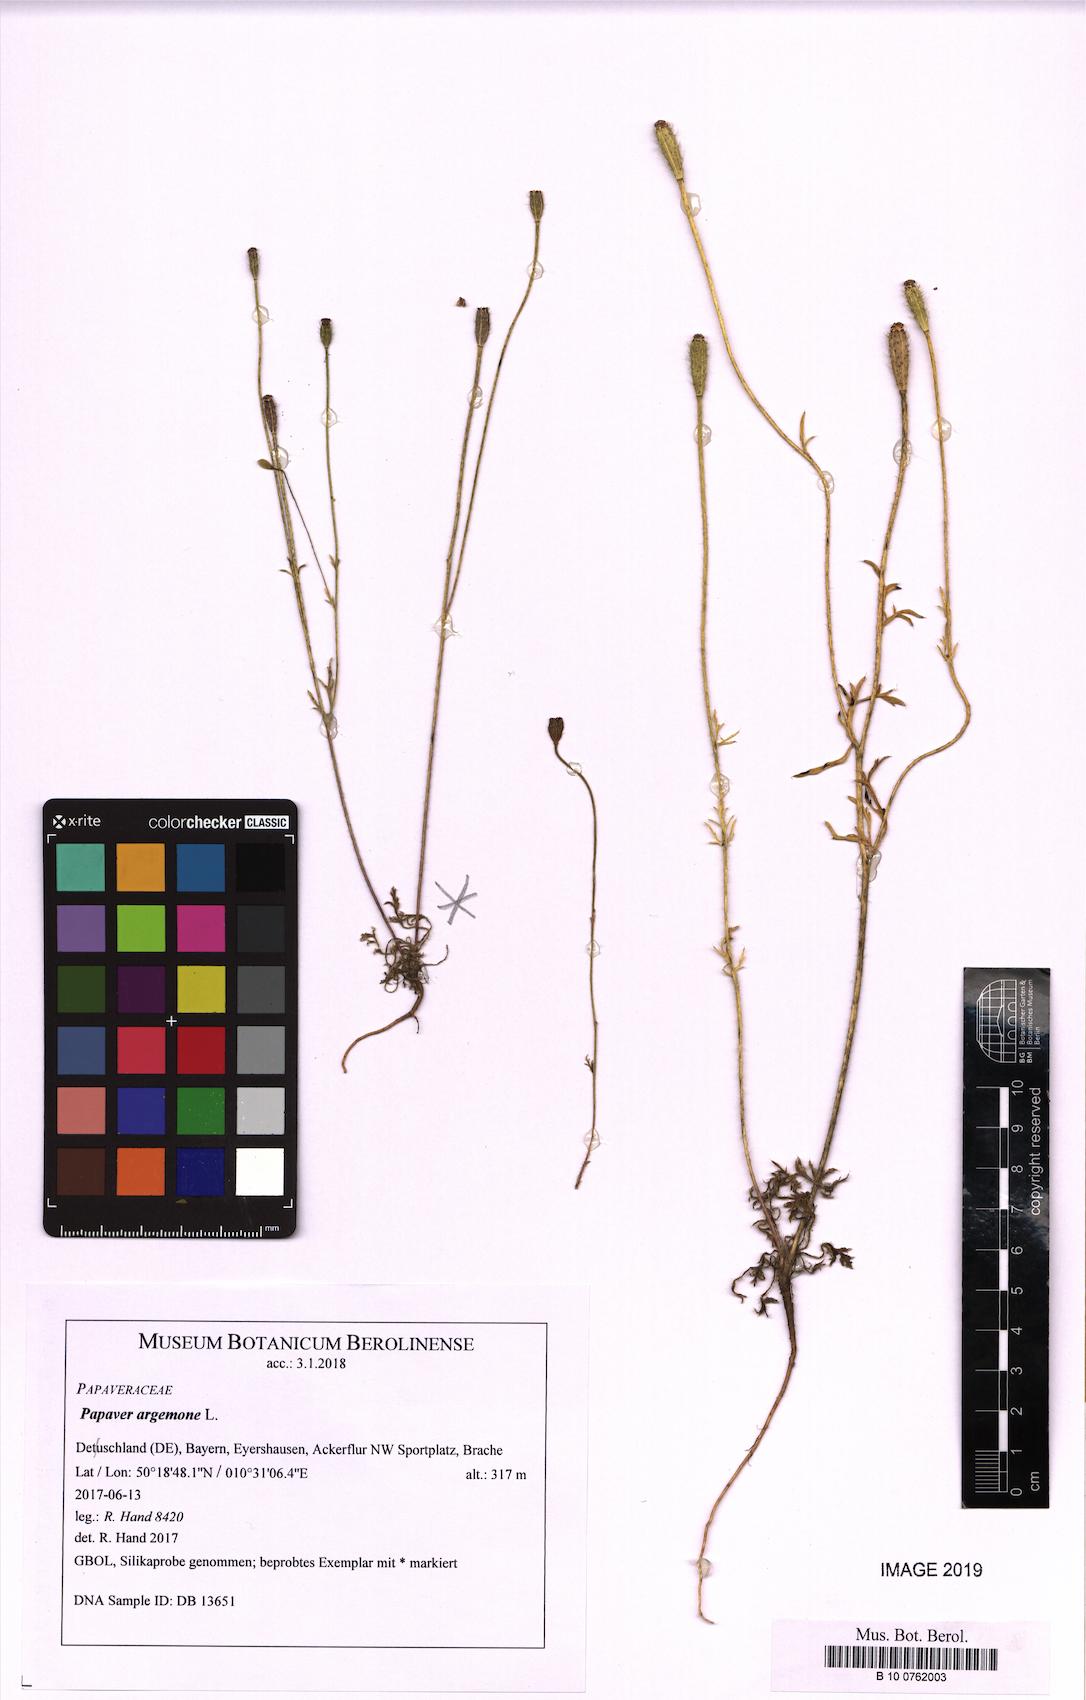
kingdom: Plantae
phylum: Tracheophyta
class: Magnoliopsida
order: Ranunculales
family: Papaveraceae
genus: Roemeria
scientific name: Roemeria argemone
